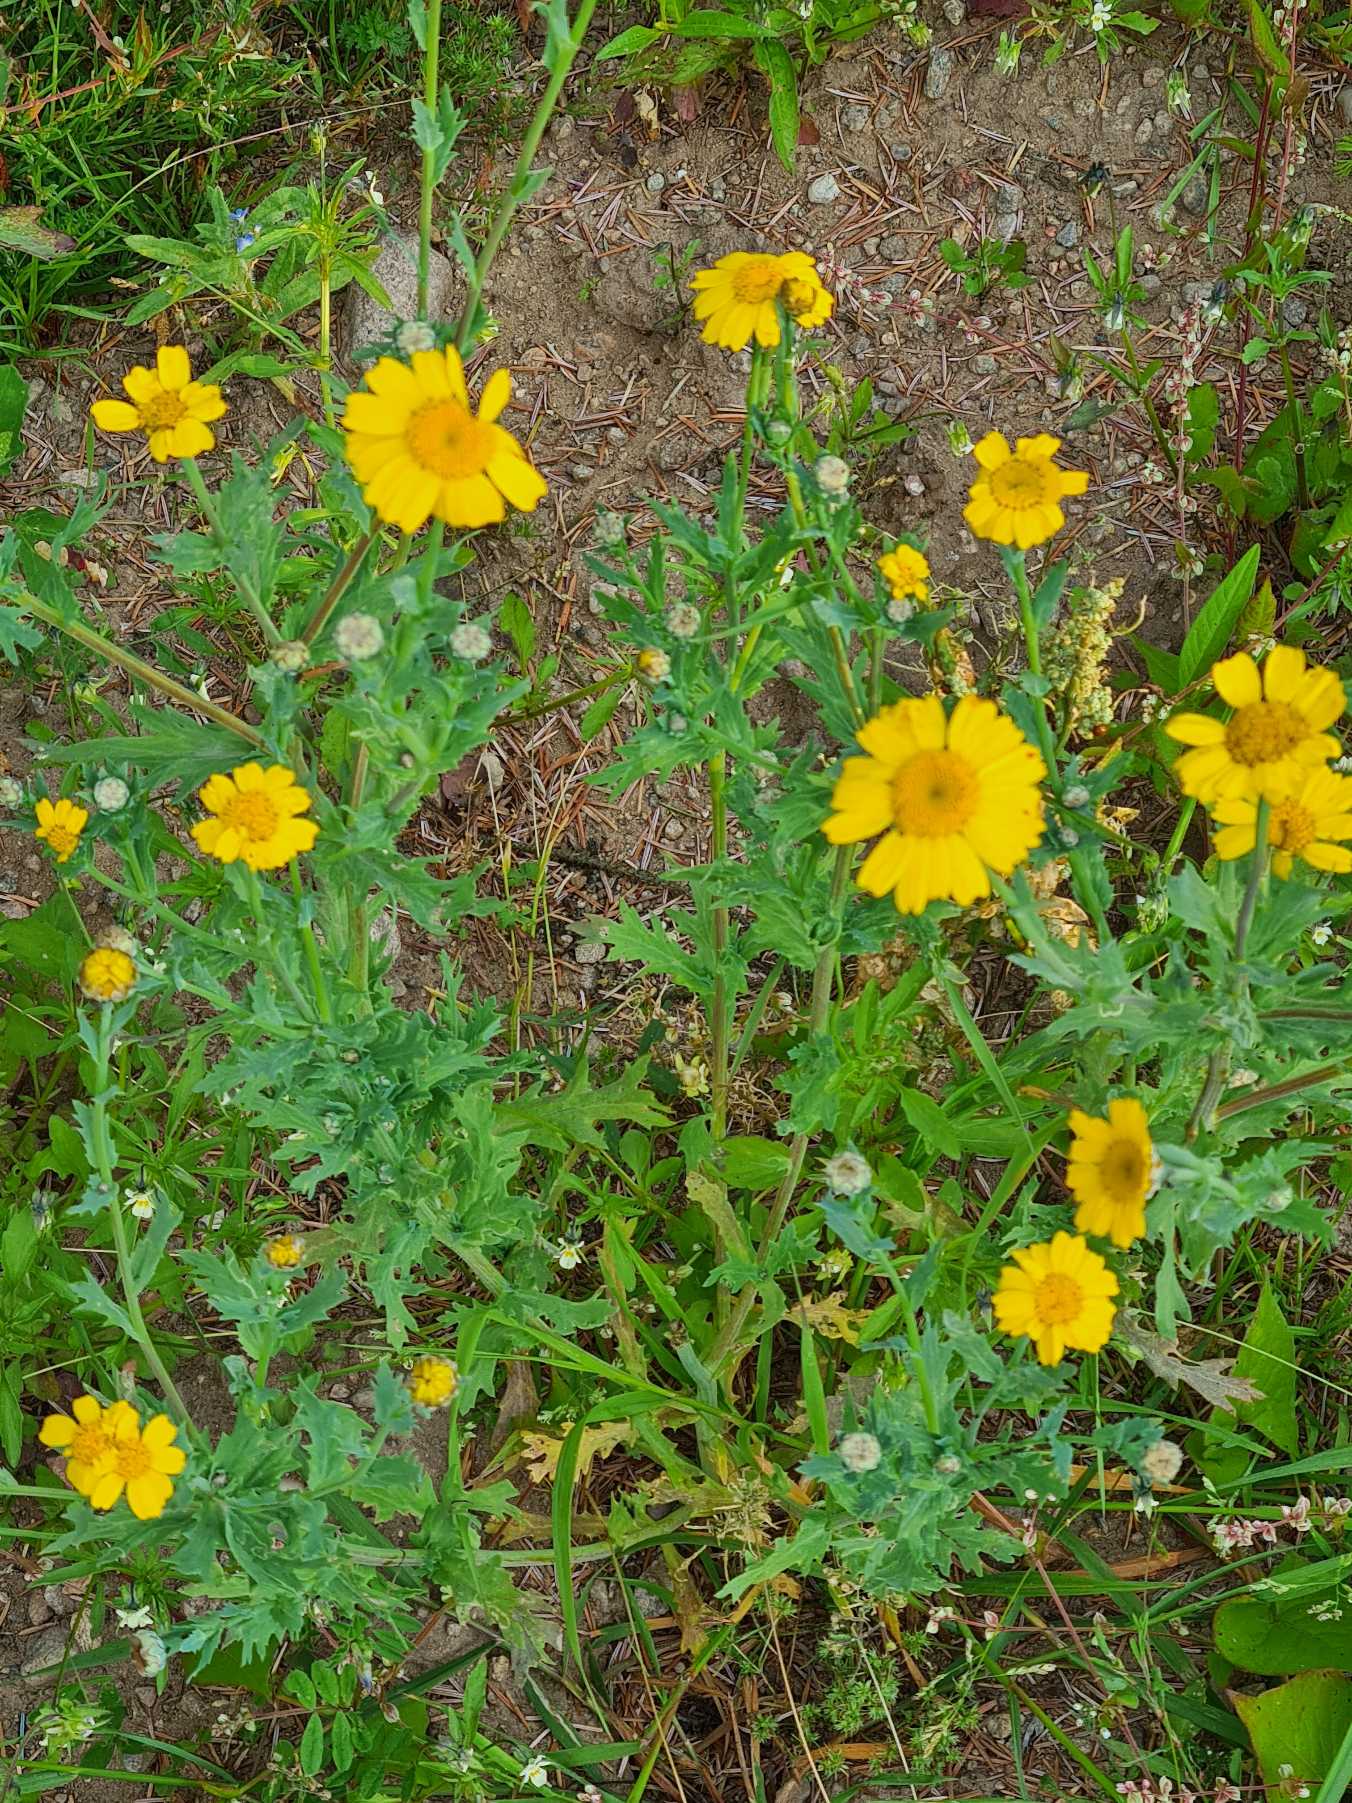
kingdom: Plantae
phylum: Tracheophyta
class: Magnoliopsida
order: Asterales
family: Asteraceae
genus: Glebionis
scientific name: Glebionis segetum
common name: Gul okseøje
